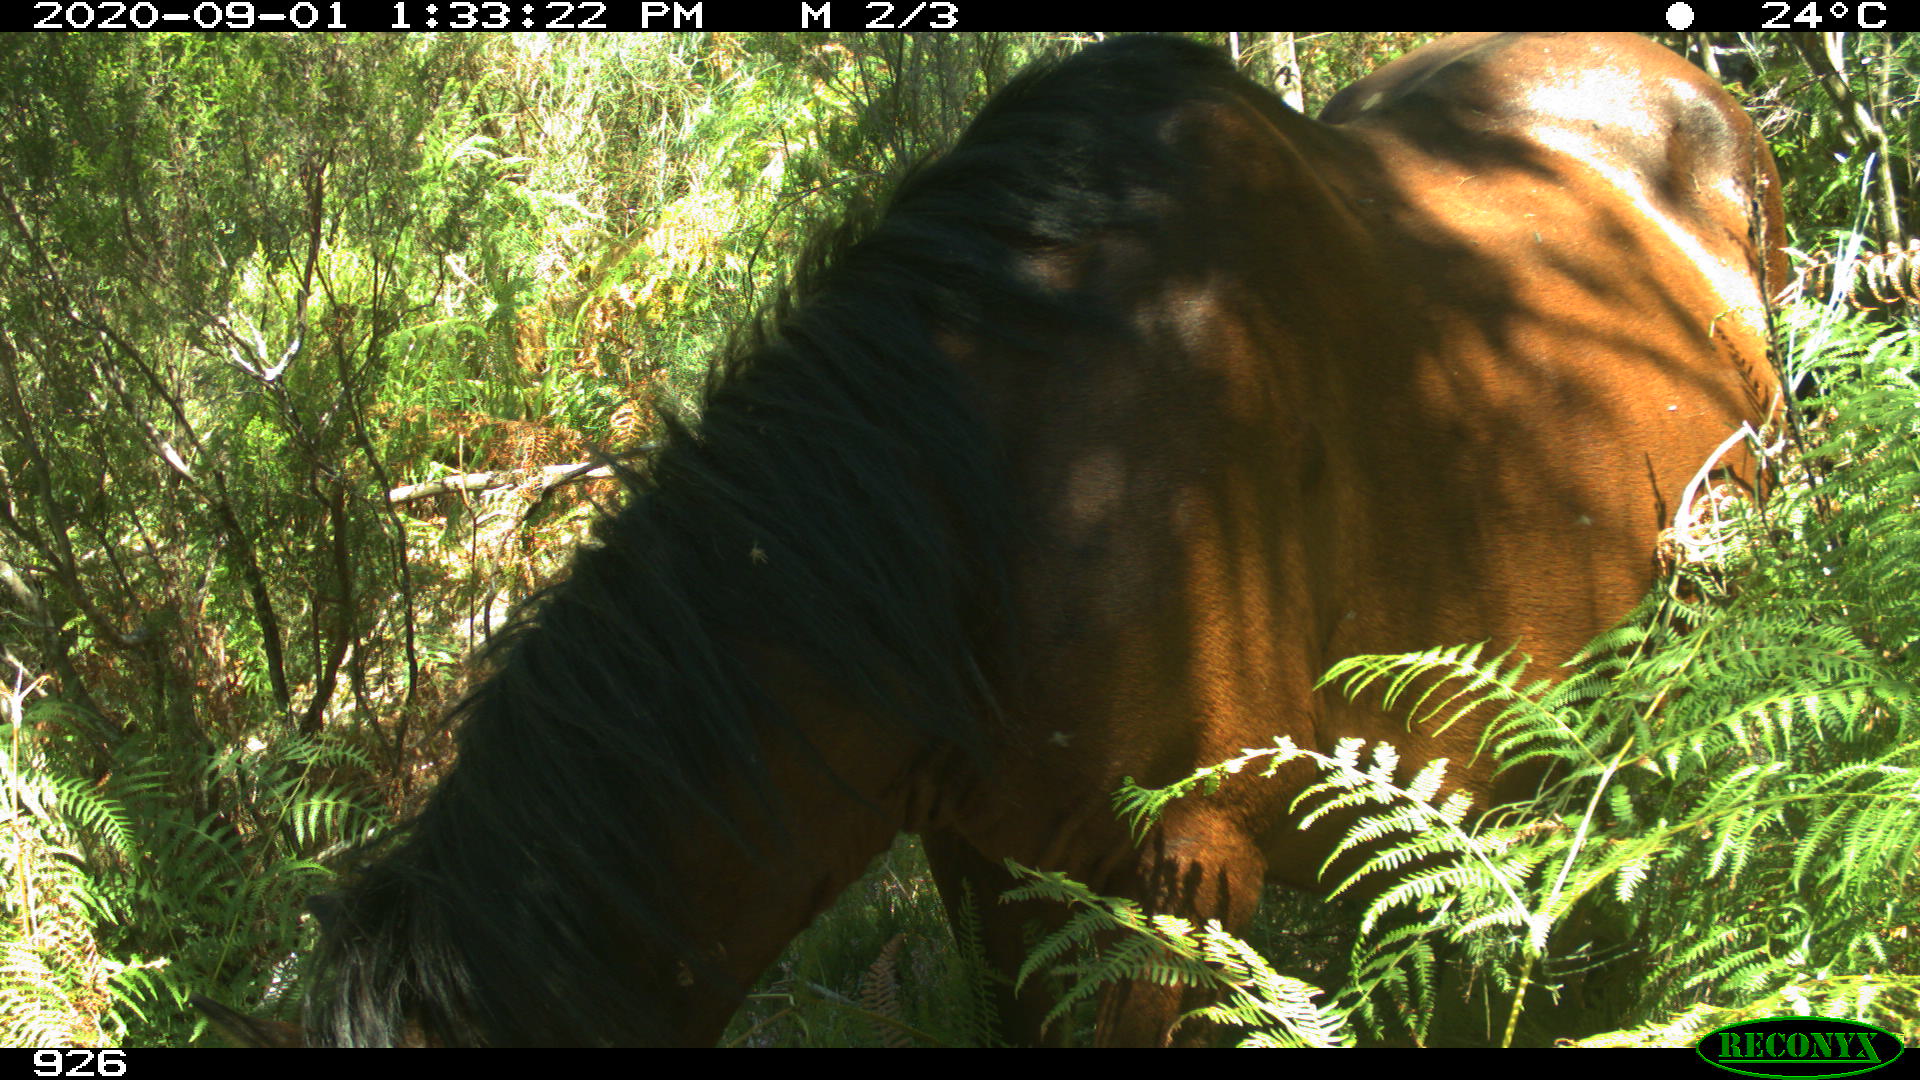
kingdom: Animalia
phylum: Chordata
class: Mammalia
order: Perissodactyla
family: Equidae
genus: Equus
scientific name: Equus caballus
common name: Horse
